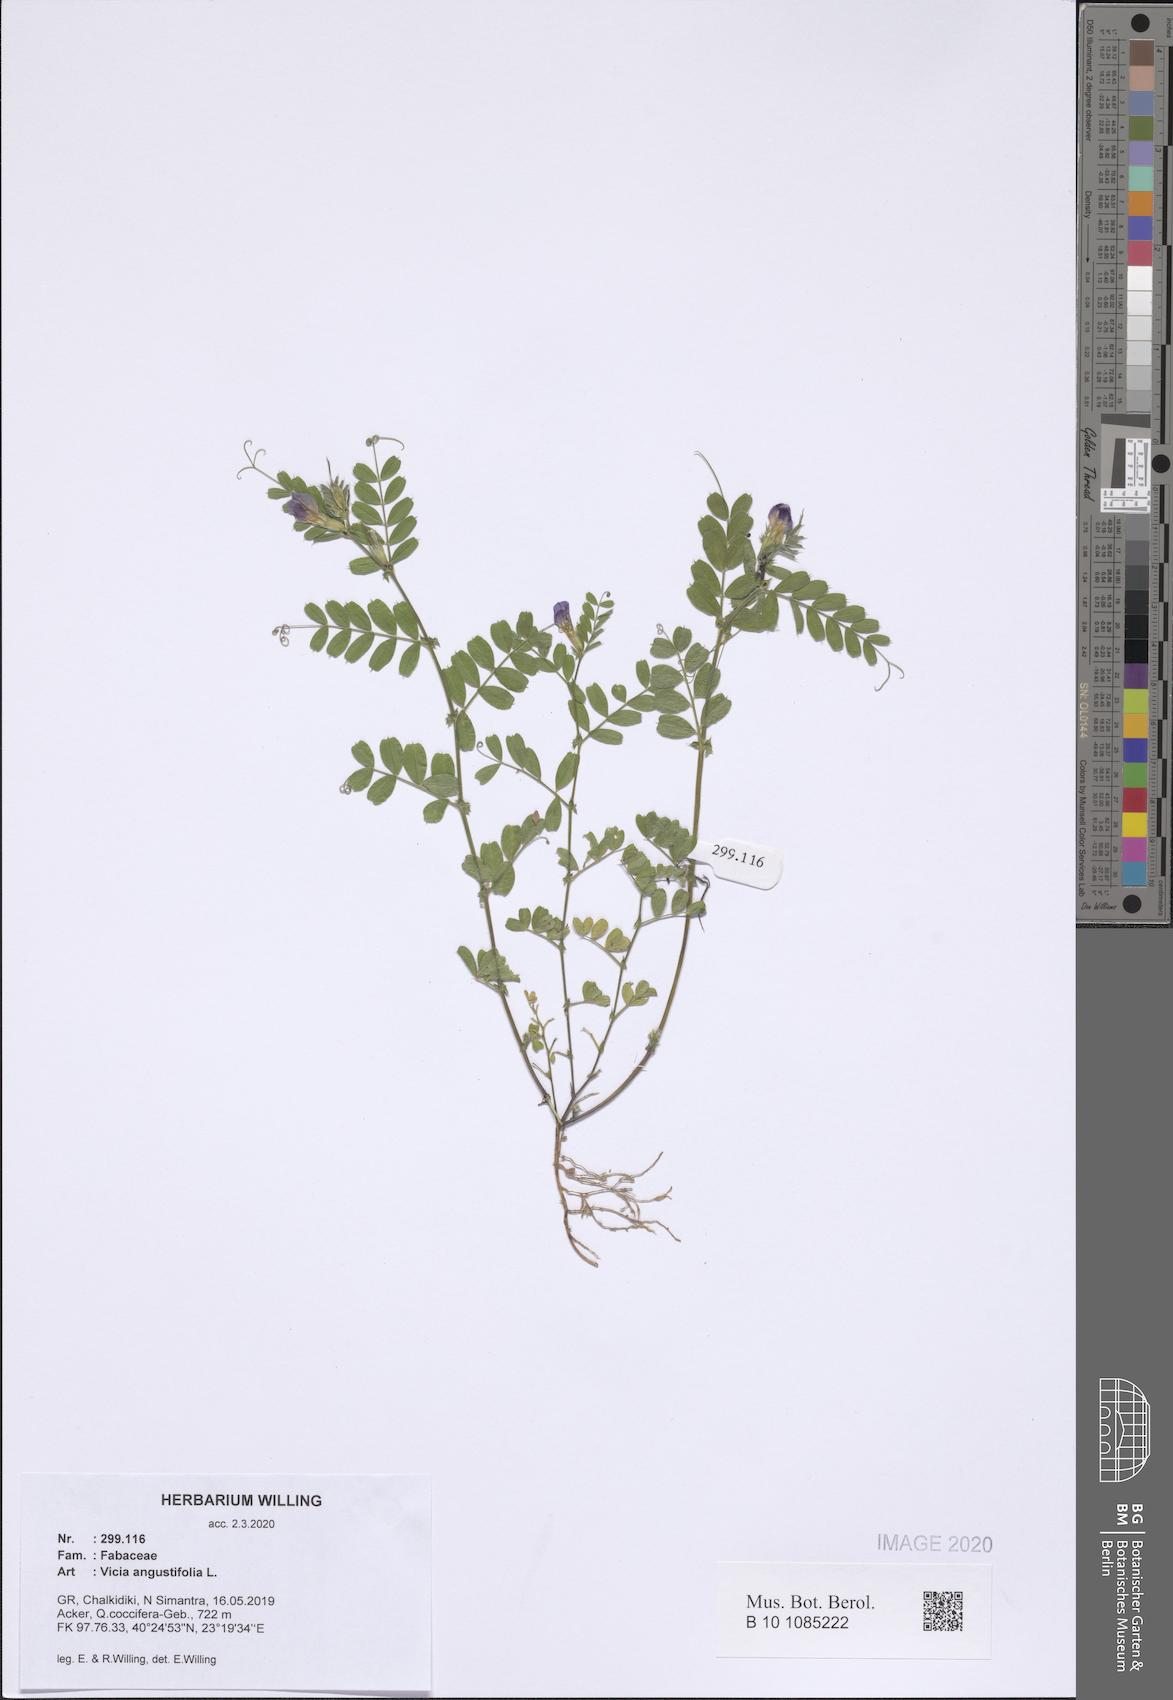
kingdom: Plantae
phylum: Tracheophyta
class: Magnoliopsida
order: Fabales
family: Fabaceae
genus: Vicia
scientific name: Vicia sativa
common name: Garden vetch
